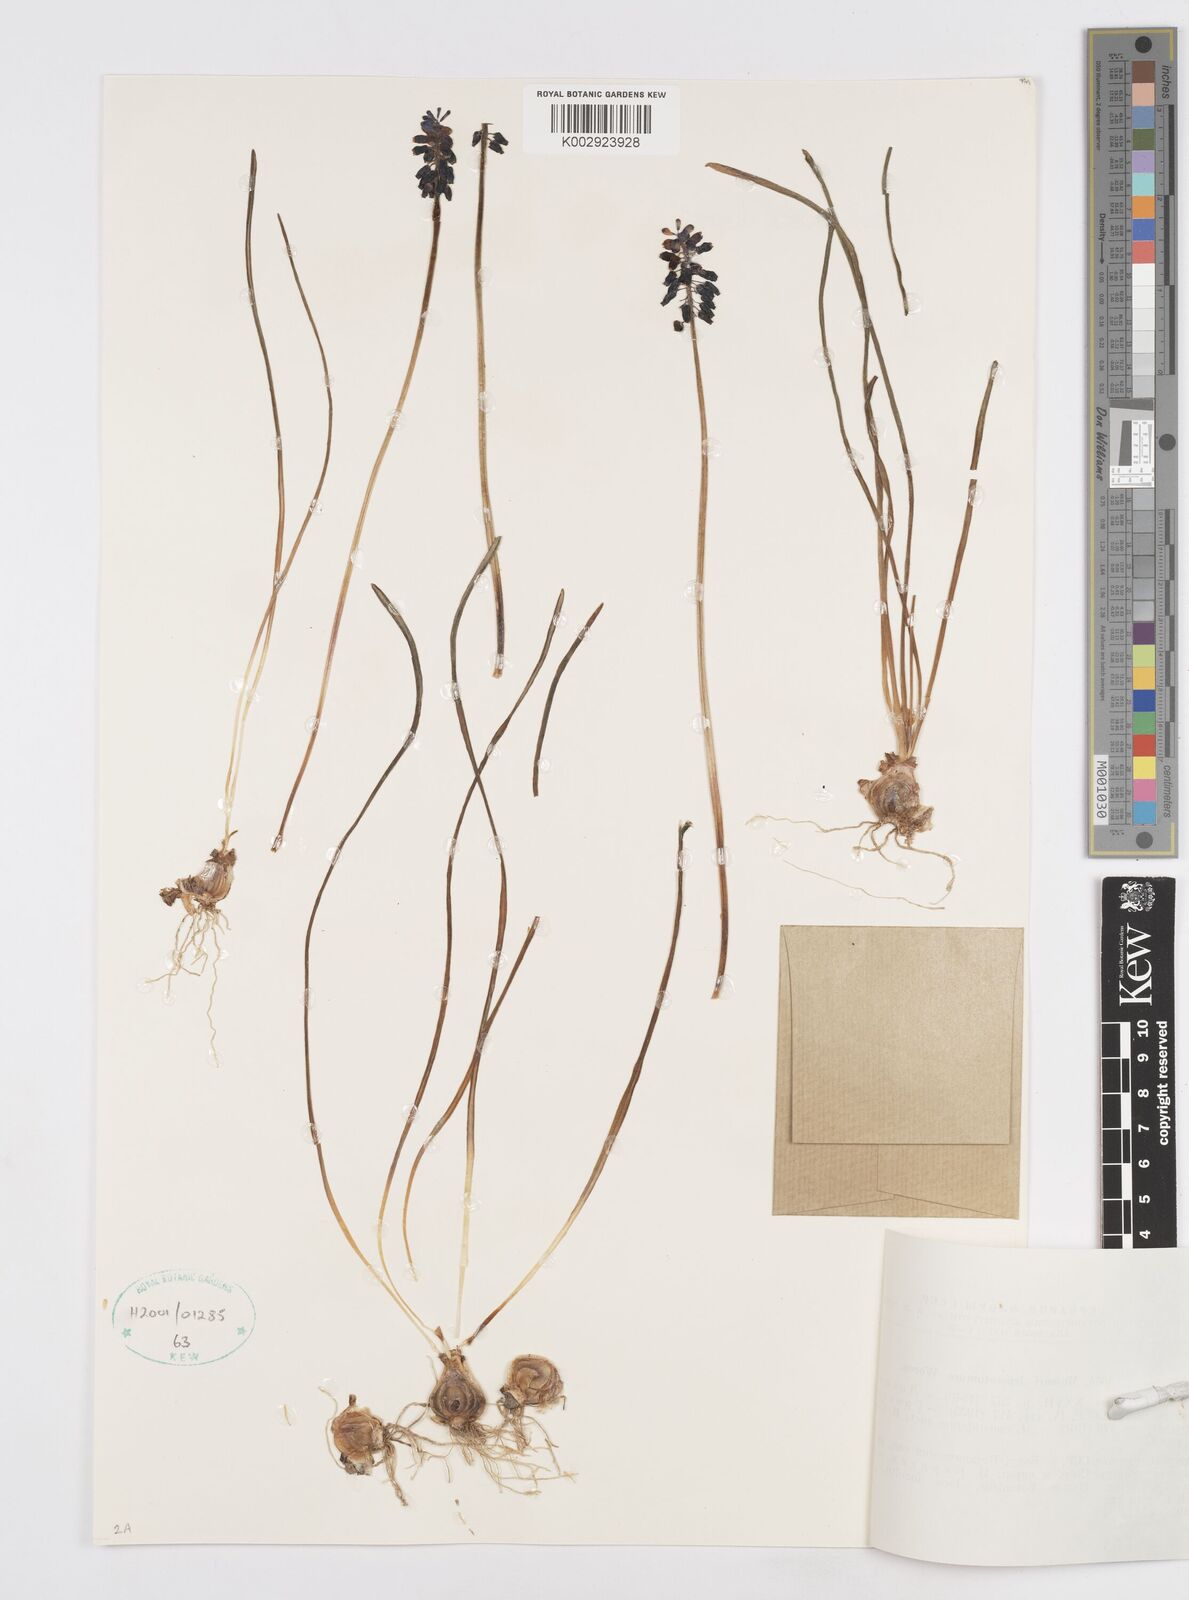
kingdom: Plantae
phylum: Tracheophyta
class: Liliopsida
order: Asparagales
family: Asparagaceae
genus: Muscari
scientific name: Muscari neglectum
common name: Grape-hyacinth
